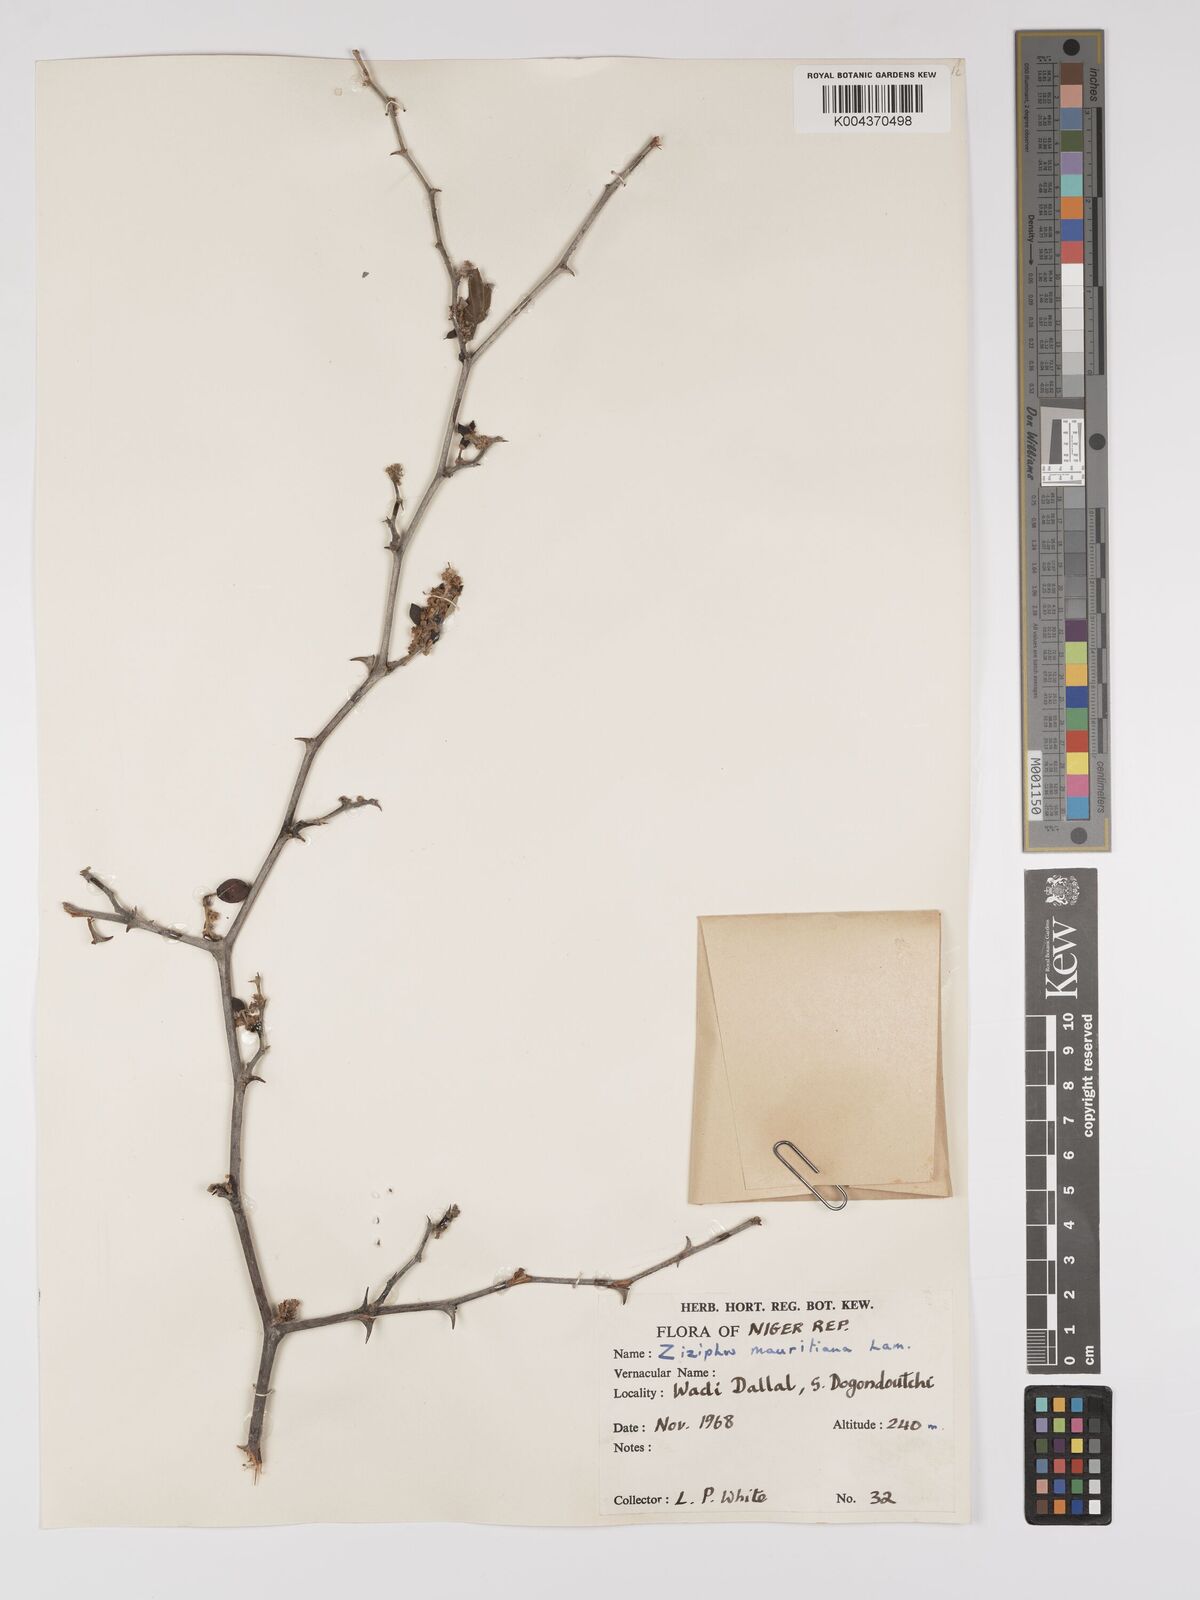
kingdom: Plantae
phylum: Tracheophyta
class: Magnoliopsida
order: Rosales
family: Rhamnaceae
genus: Ziziphus
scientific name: Ziziphus mauritiana
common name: Indian jujube
